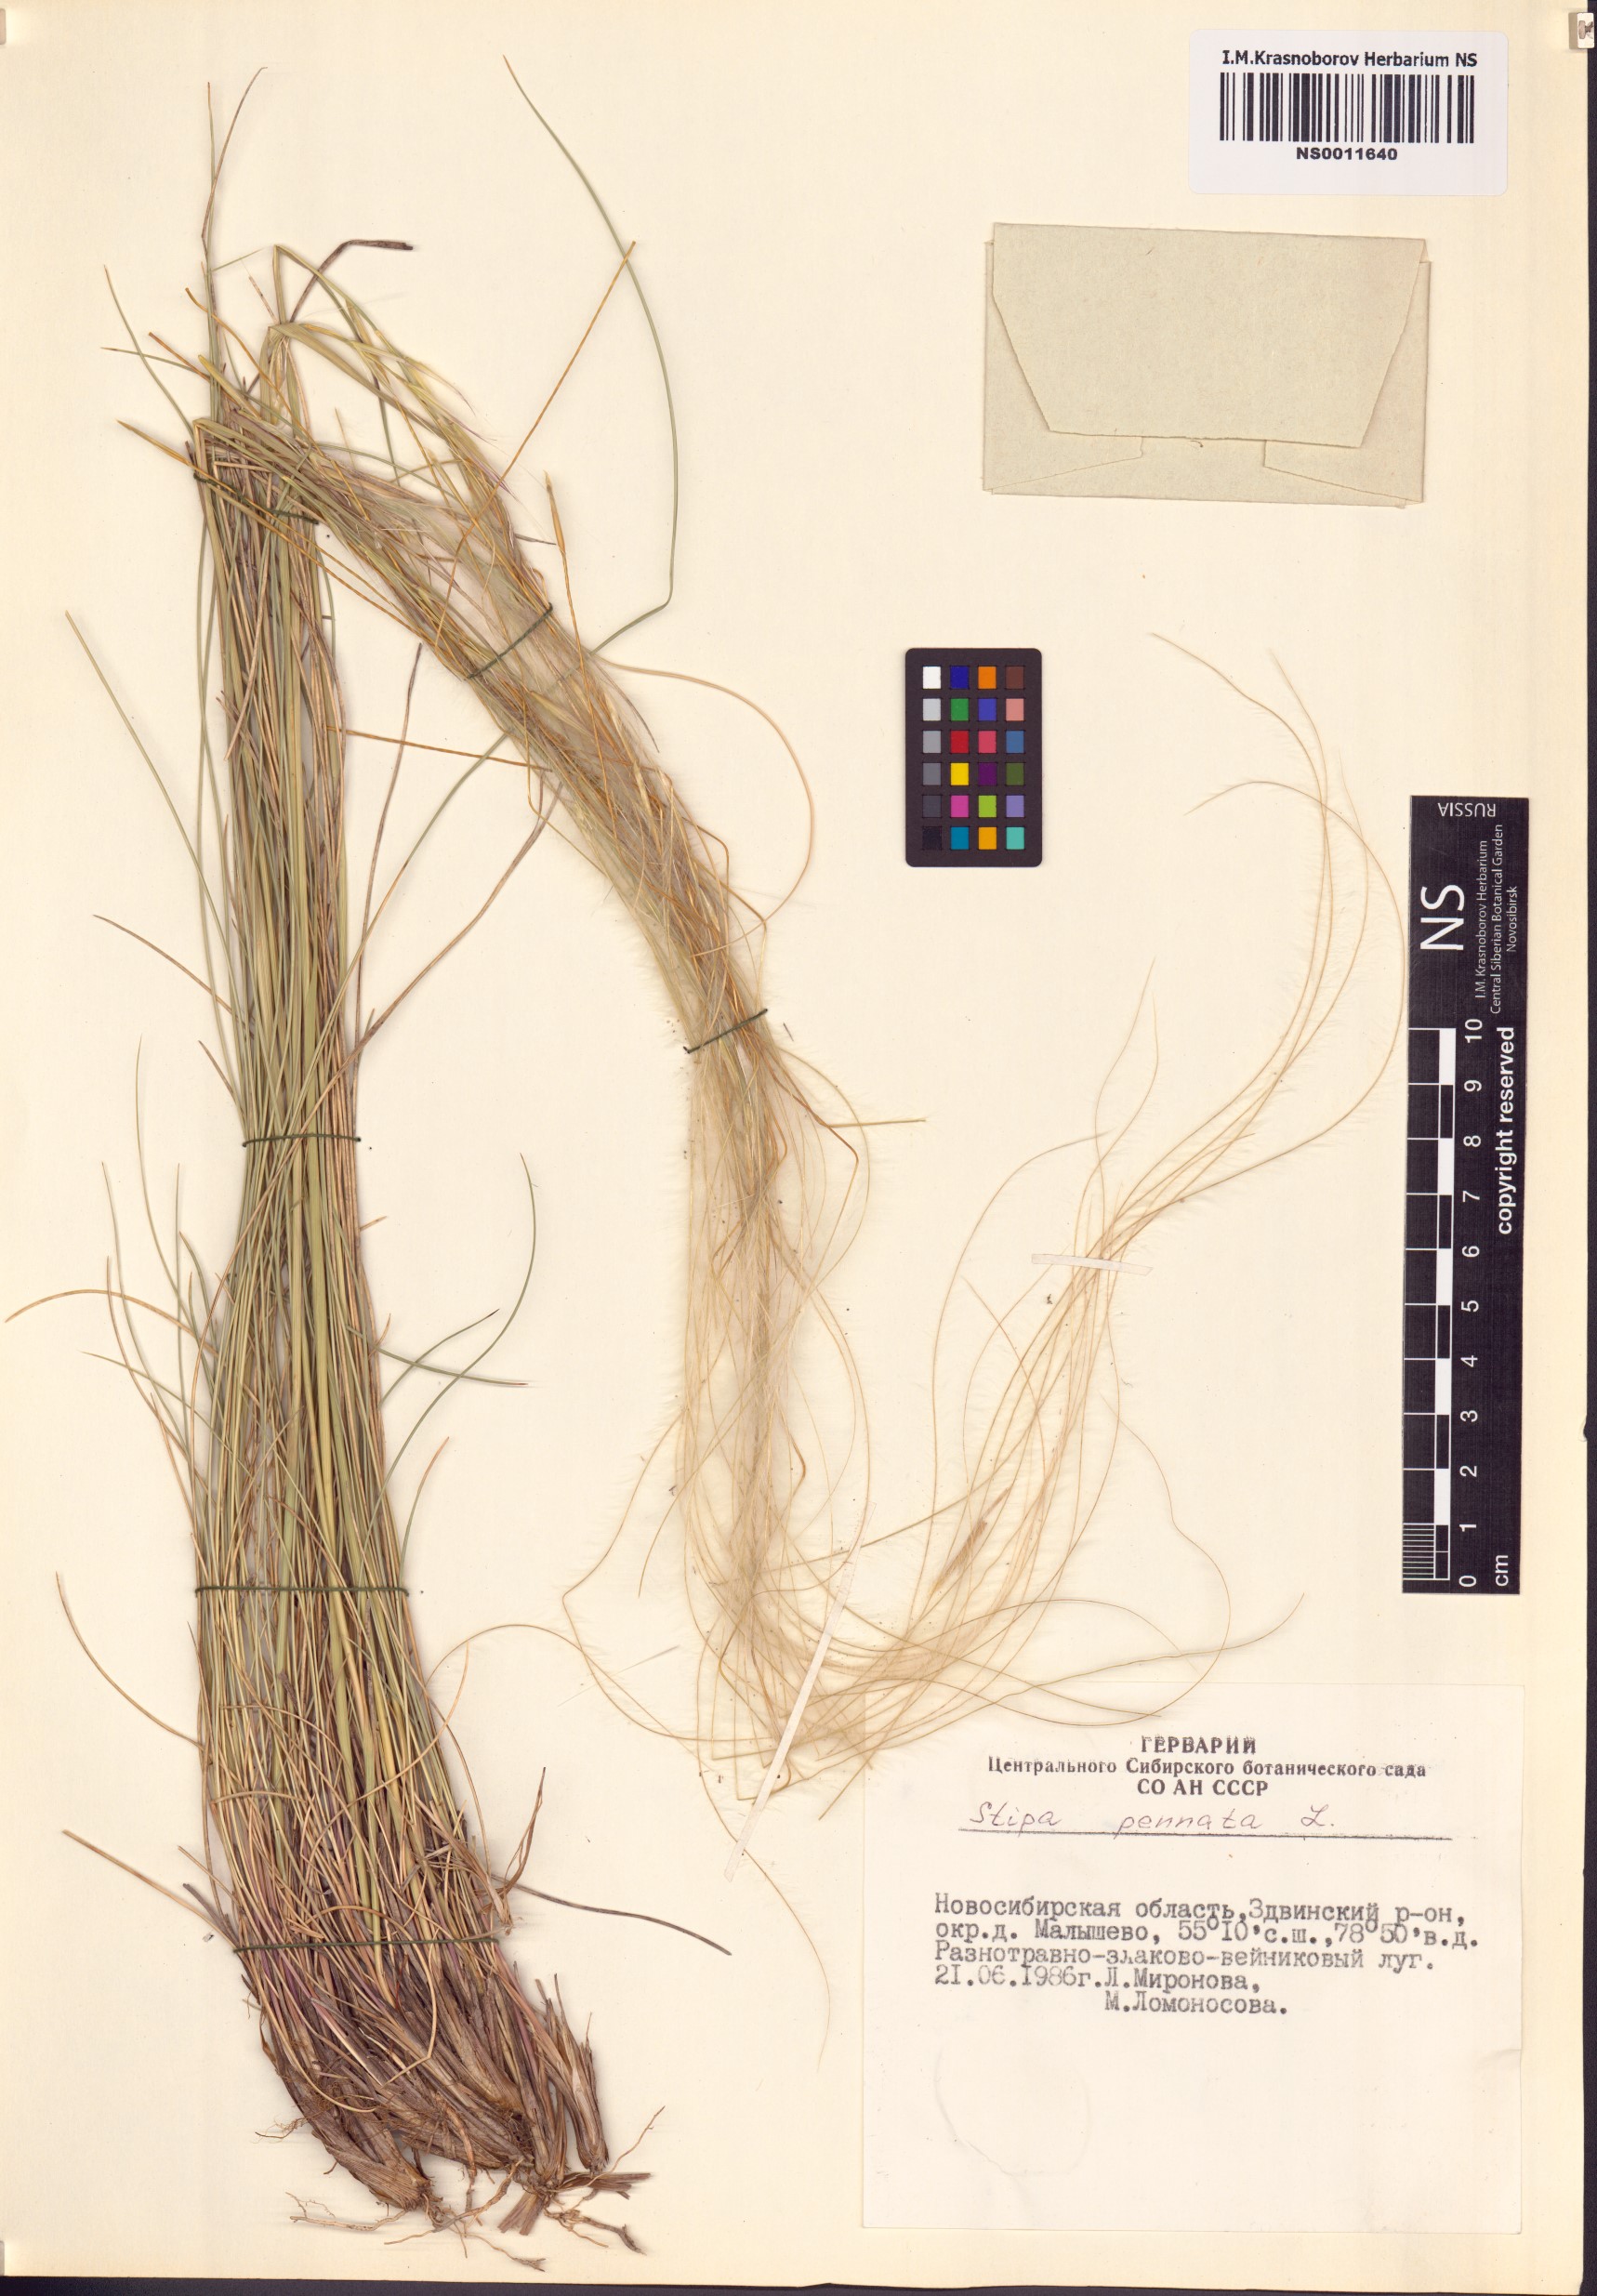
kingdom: Plantae
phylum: Tracheophyta
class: Liliopsida
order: Poales
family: Poaceae
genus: Stipa
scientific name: Stipa pennata
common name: European feather grass
